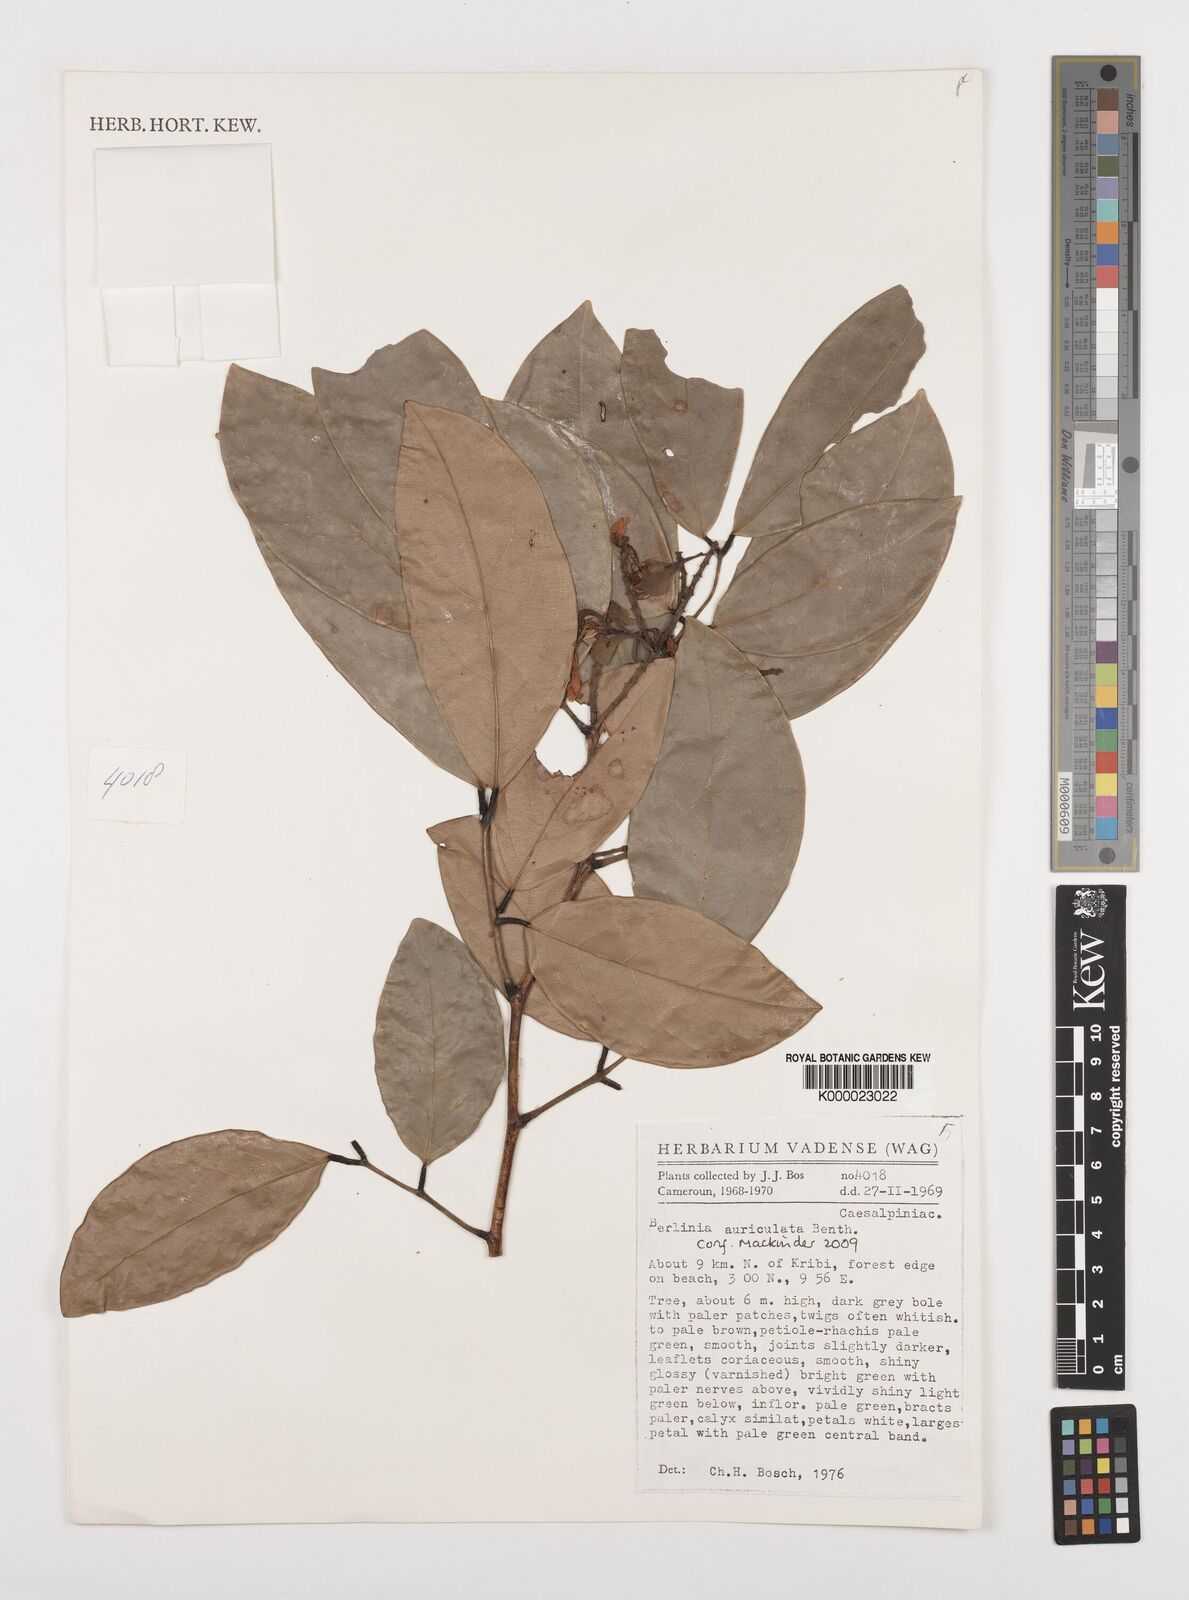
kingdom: Plantae
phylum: Tracheophyta
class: Magnoliopsida
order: Fabales
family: Fabaceae
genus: Berlinia
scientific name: Berlinia auriculata
